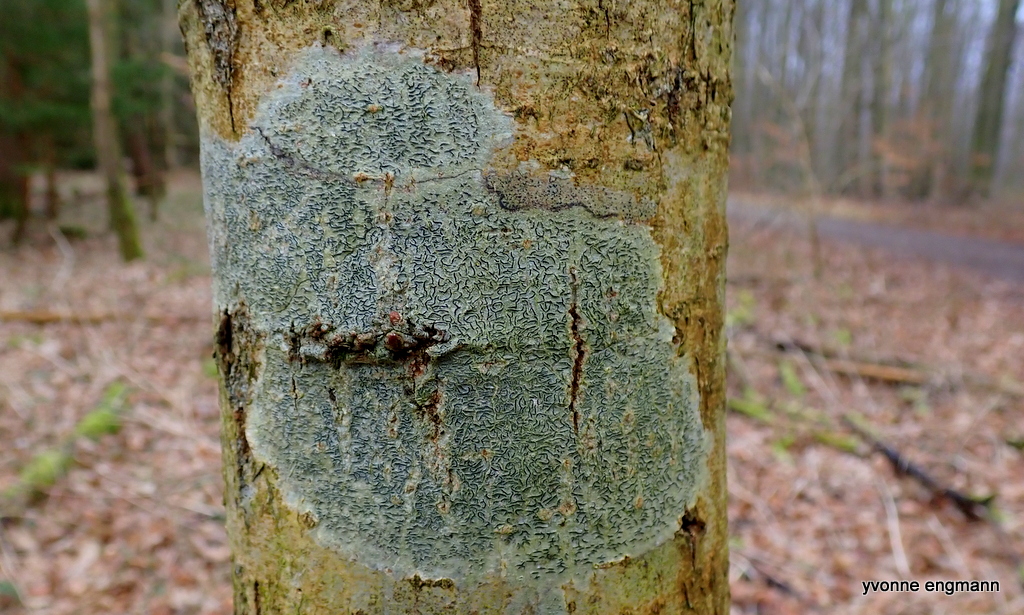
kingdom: Fungi
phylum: Ascomycota
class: Lecanoromycetes
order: Ostropales
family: Graphidaceae
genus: Graphis
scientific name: Graphis scripta
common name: almindelig skriftlav
